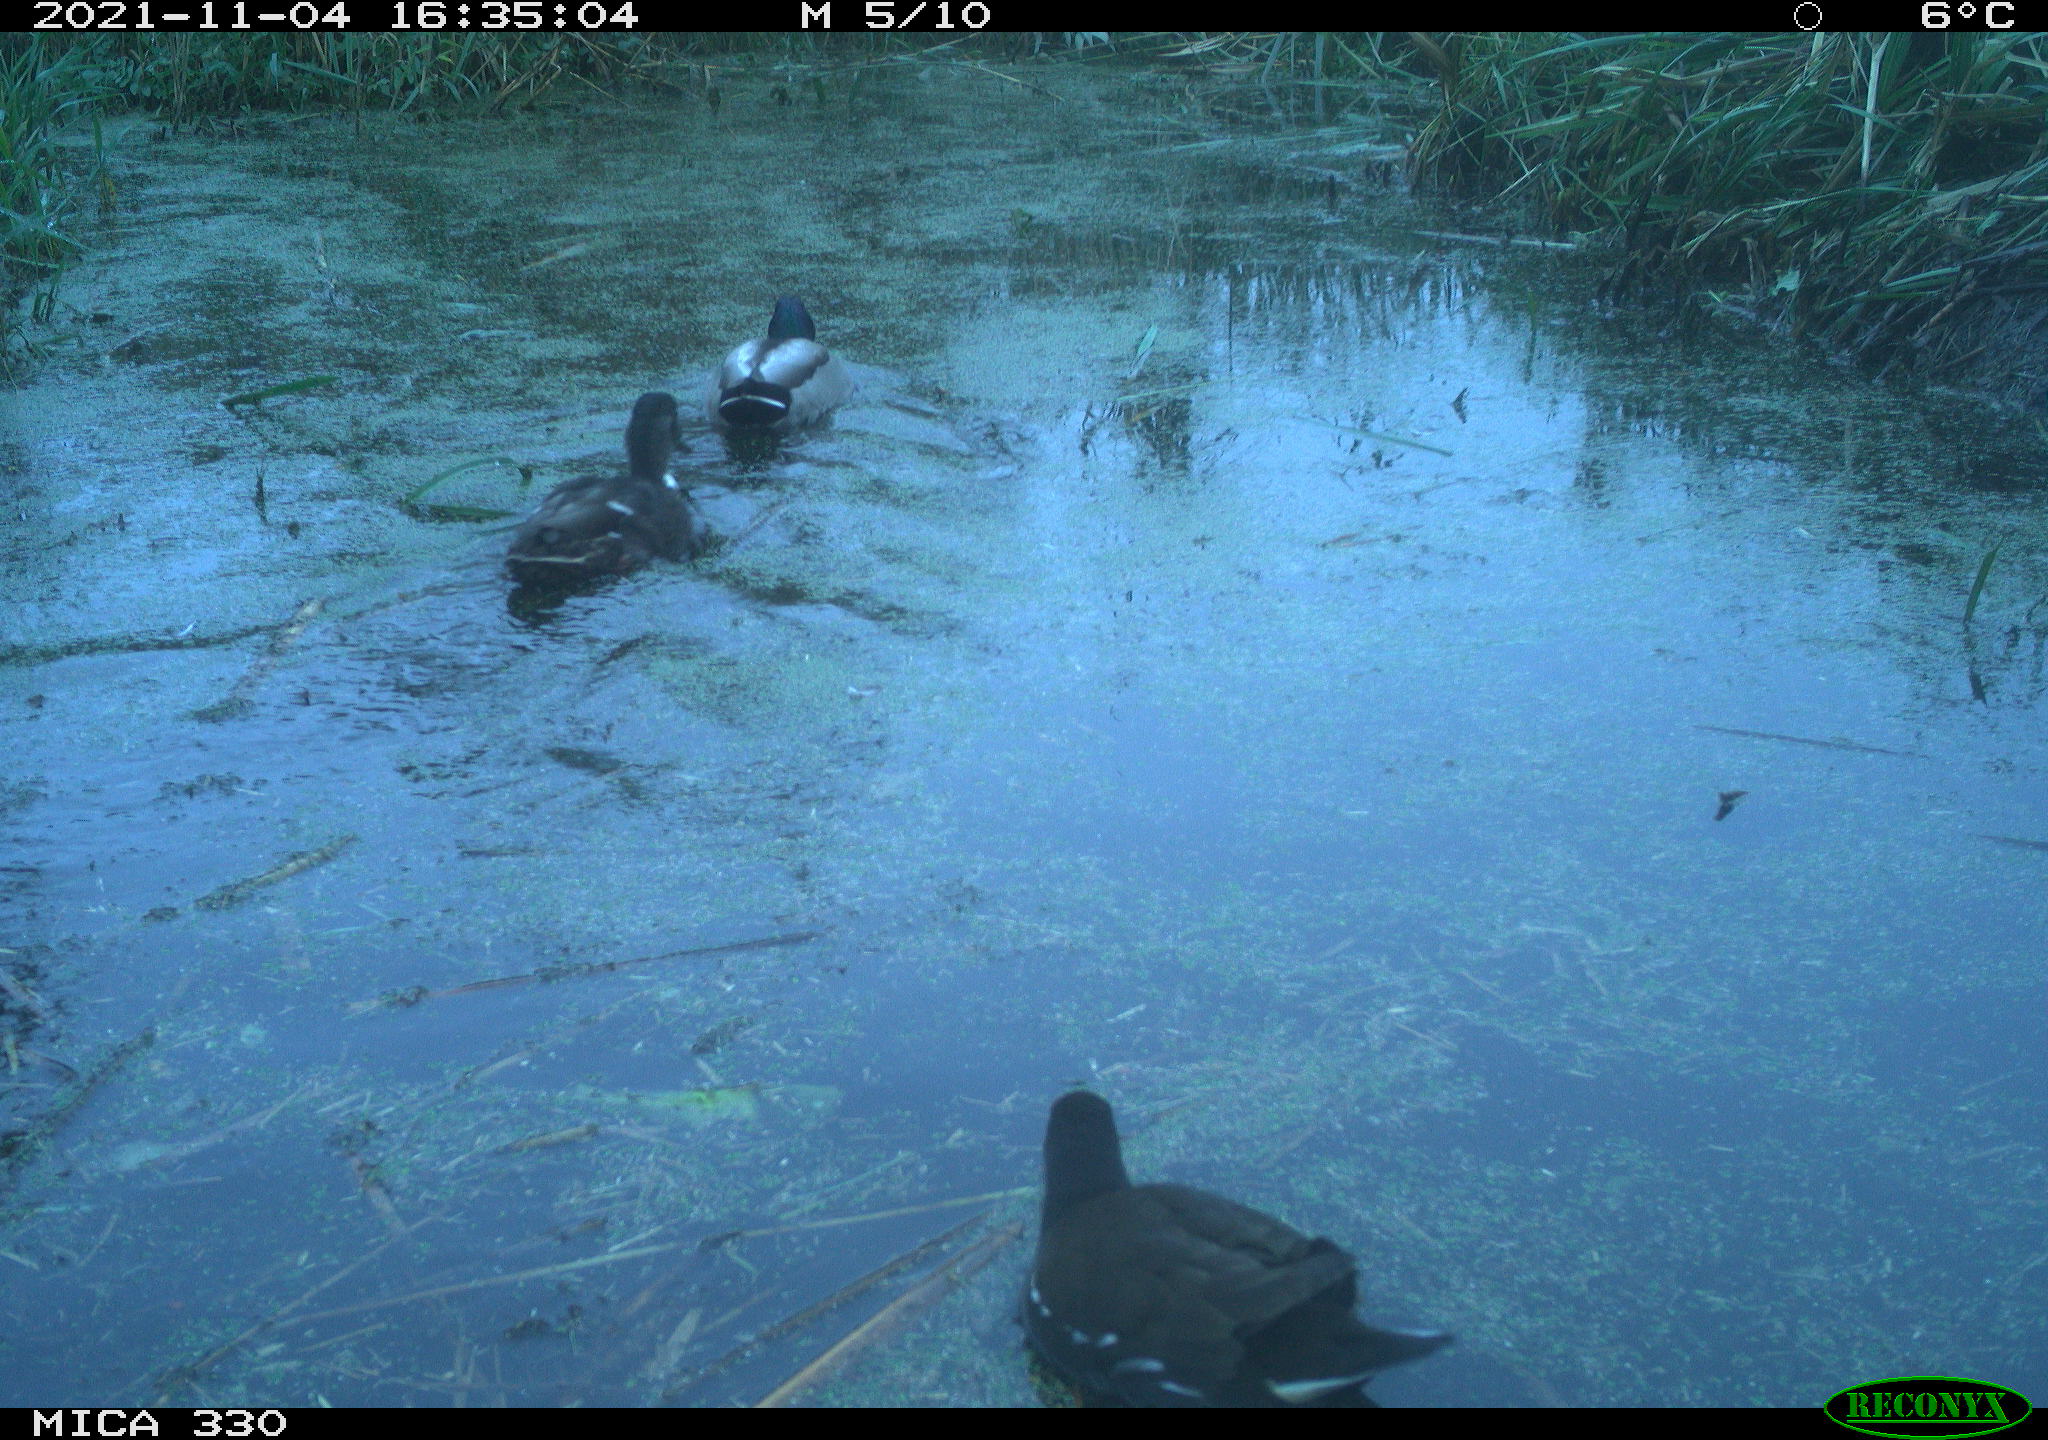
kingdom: Animalia
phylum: Chordata
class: Aves
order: Gruiformes
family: Rallidae
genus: Gallinula
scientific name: Gallinula chloropus
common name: Common moorhen
